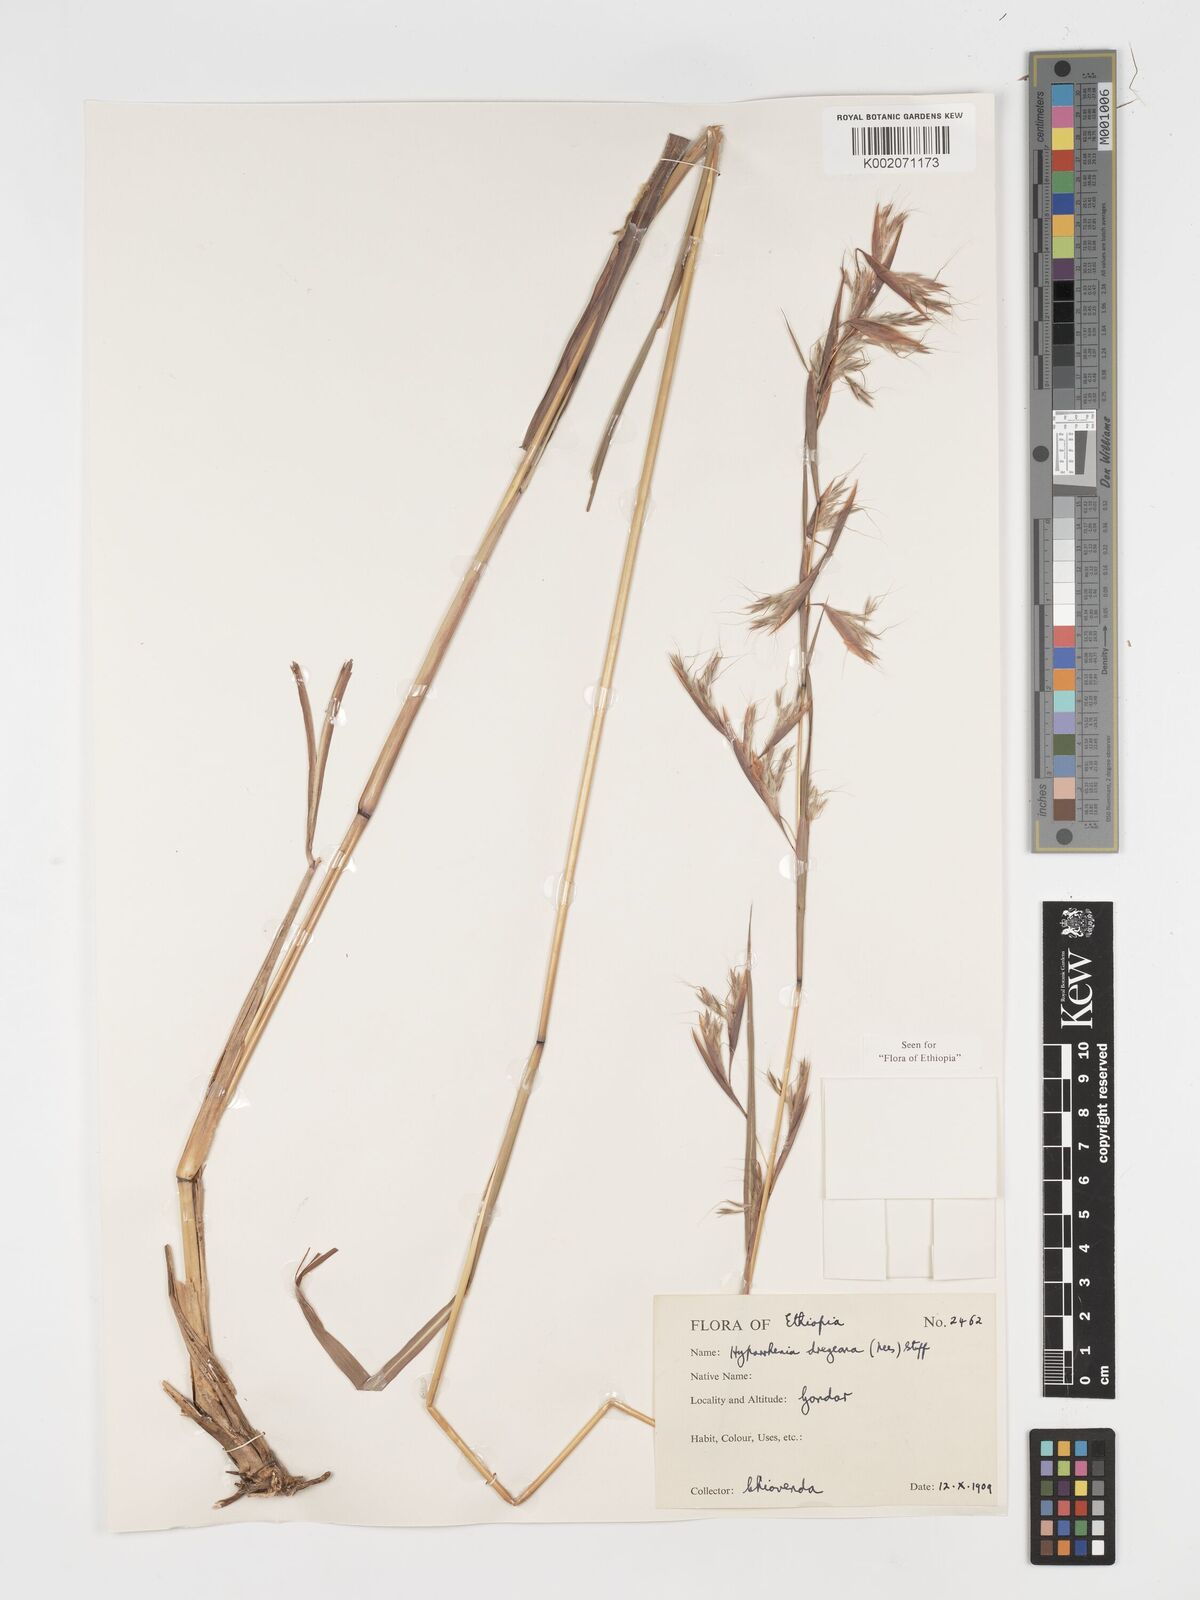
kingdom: Plantae
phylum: Tracheophyta
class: Liliopsida
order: Poales
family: Poaceae
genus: Hyparrhenia
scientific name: Hyparrhenia dregeana
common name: Silky thatching grass
